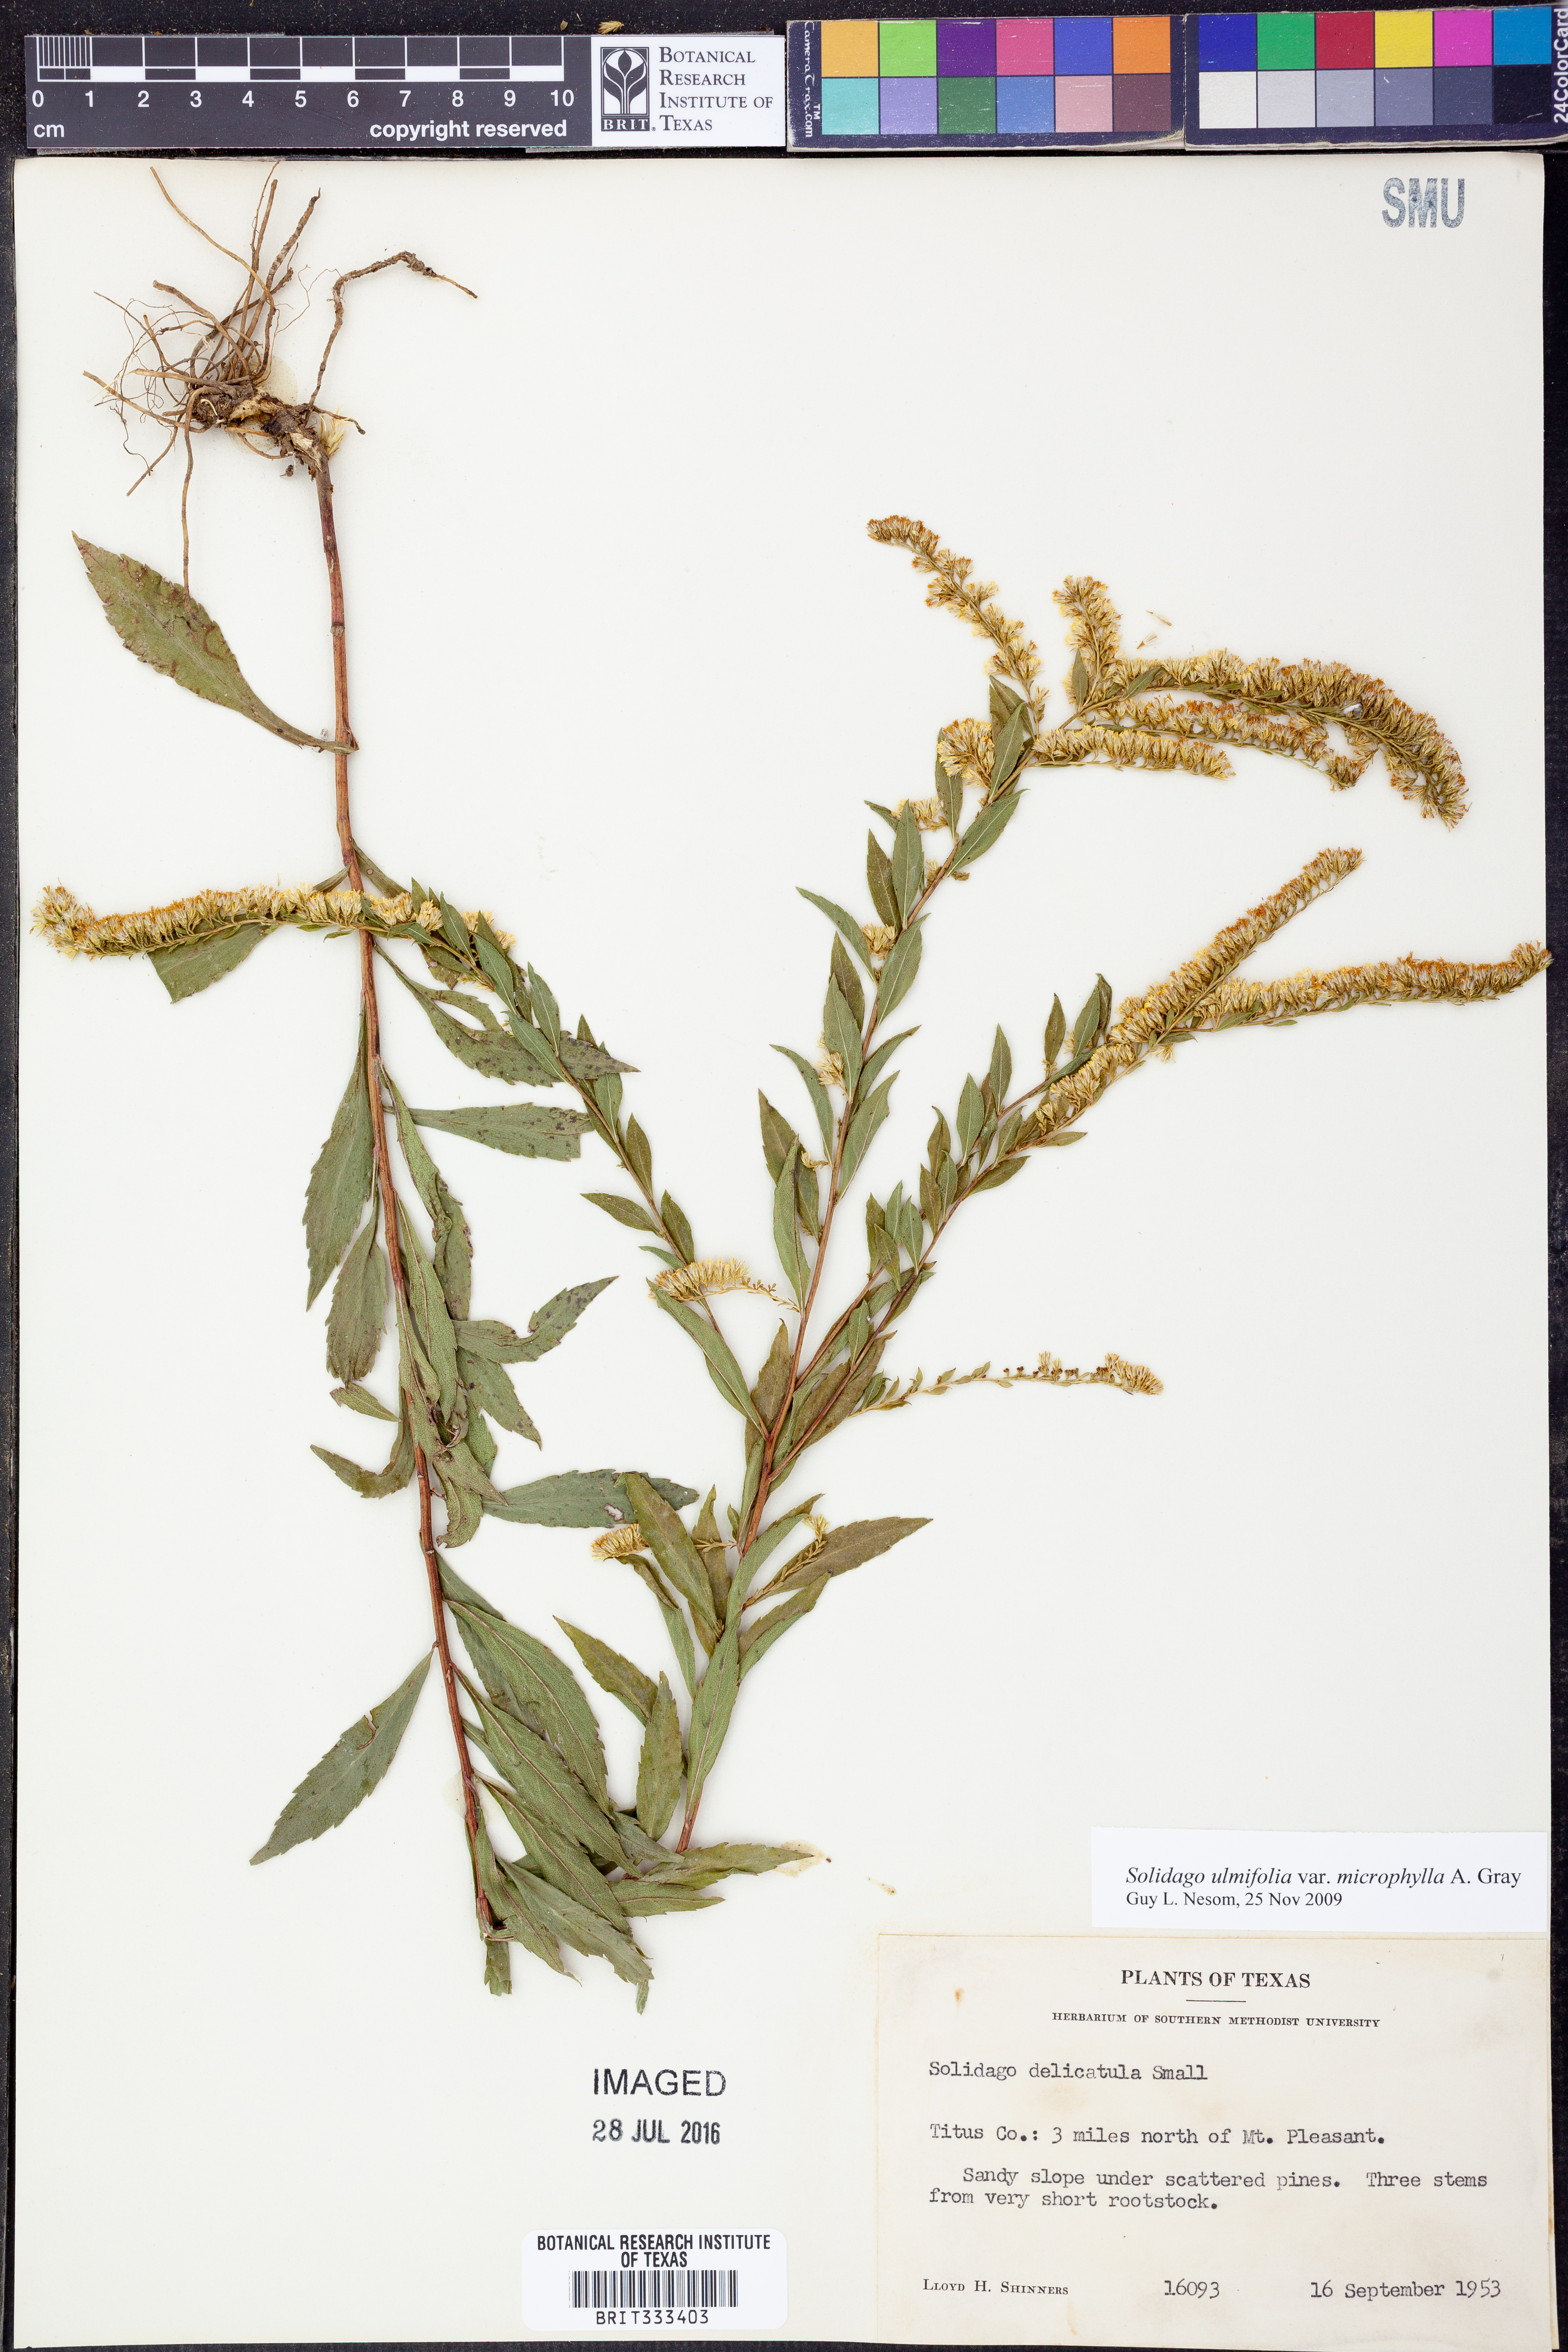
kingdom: Plantae
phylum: Tracheophyta
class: Magnoliopsida
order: Asterales
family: Asteraceae
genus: Solidago
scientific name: Solidago delicatula
